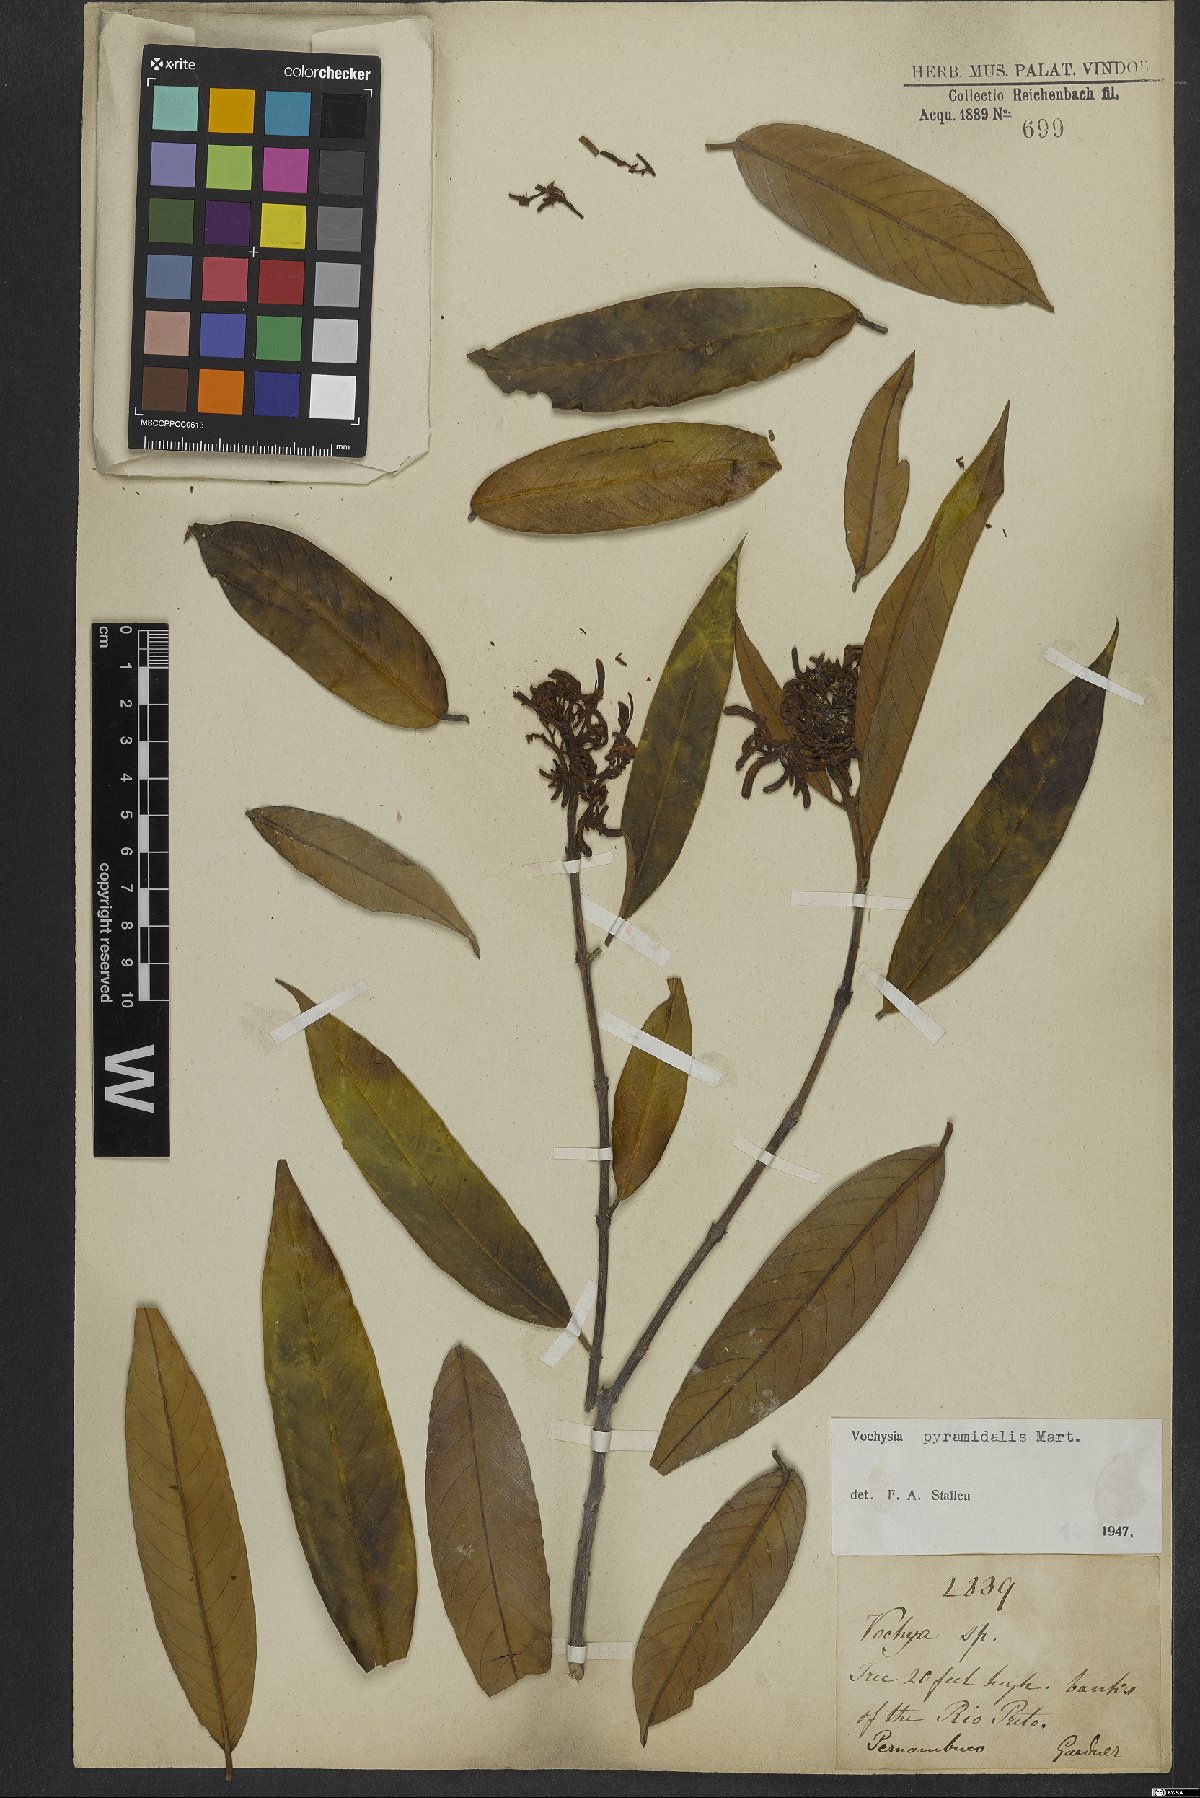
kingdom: Plantae
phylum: Tracheophyta
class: Magnoliopsida
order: Myrtales
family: Vochysiaceae
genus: Vochysia
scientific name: Vochysia pyramidalis
